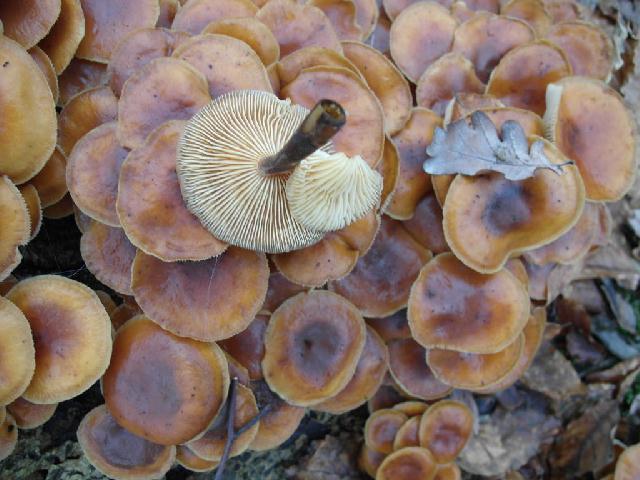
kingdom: Fungi
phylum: Basidiomycota
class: Agaricomycetes
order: Agaricales
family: Physalacriaceae
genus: Flammulina
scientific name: Flammulina velutipes
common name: gul fløjlsfod
